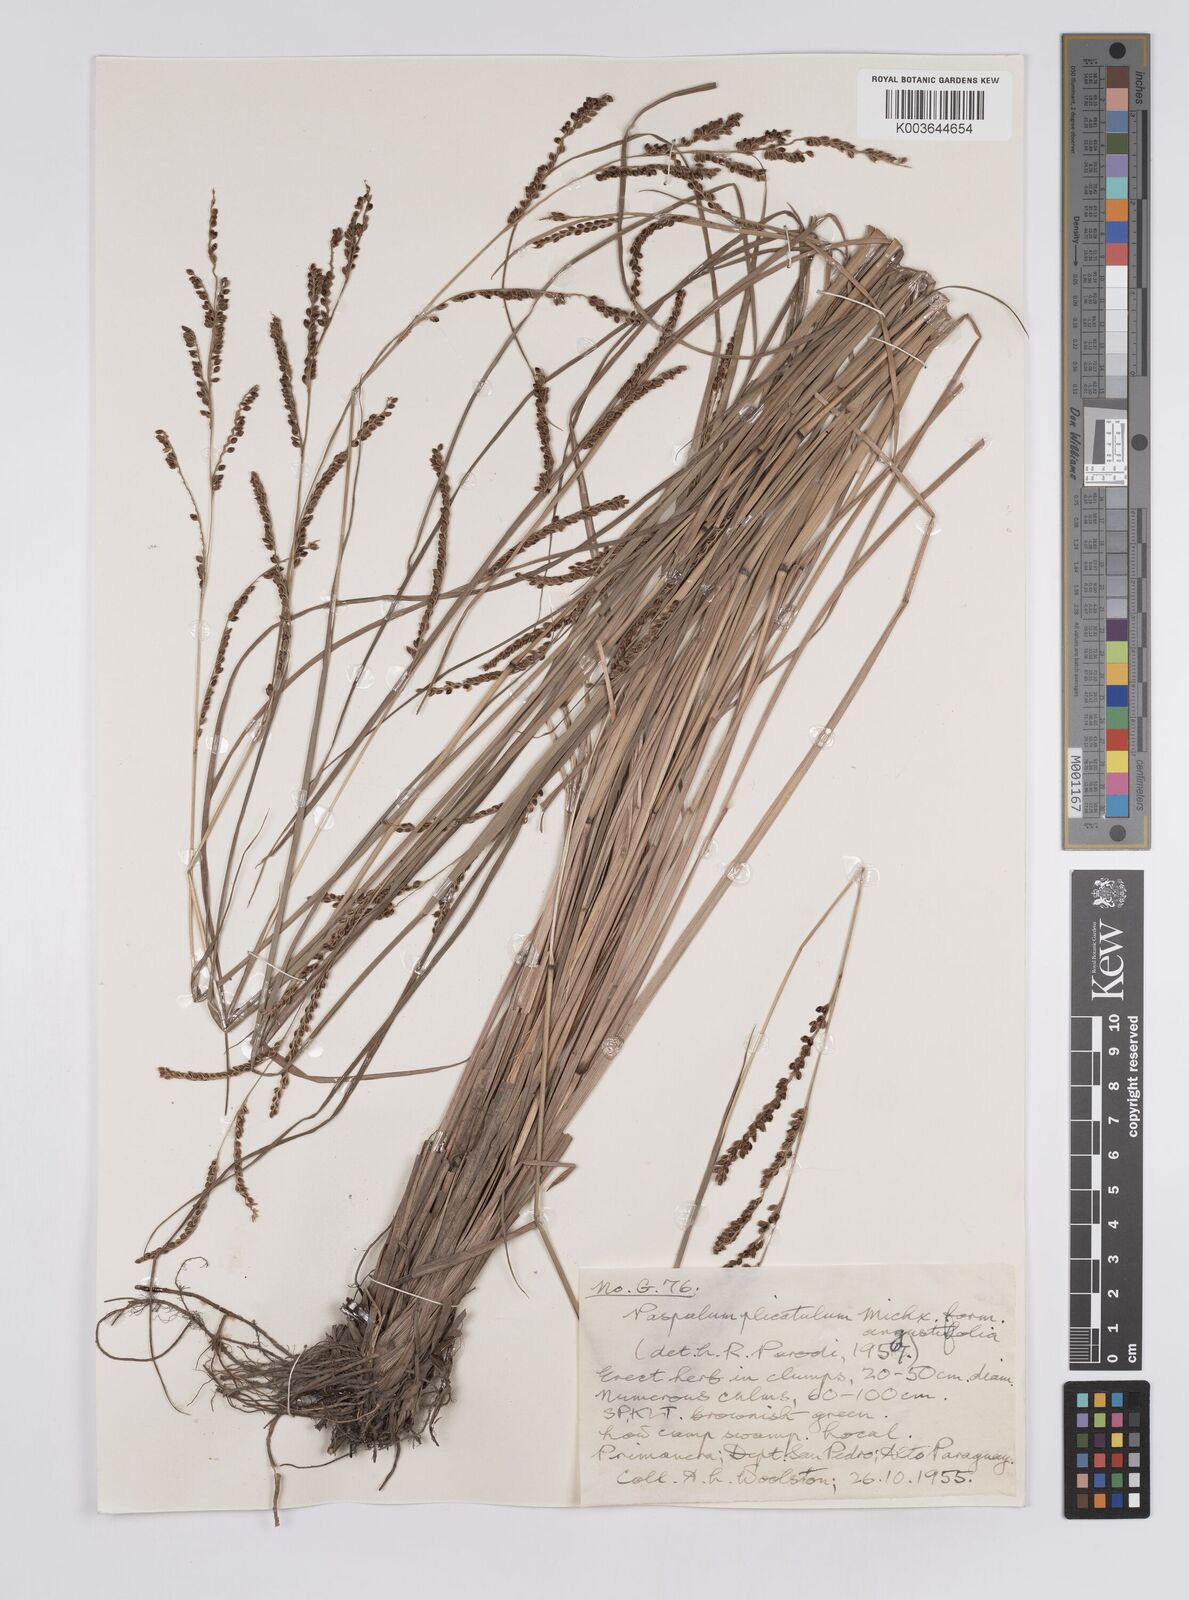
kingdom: Plantae
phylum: Tracheophyta
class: Liliopsida
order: Poales
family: Poaceae
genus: Paspalum
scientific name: Paspalum plicatulum
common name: Top paspalum
